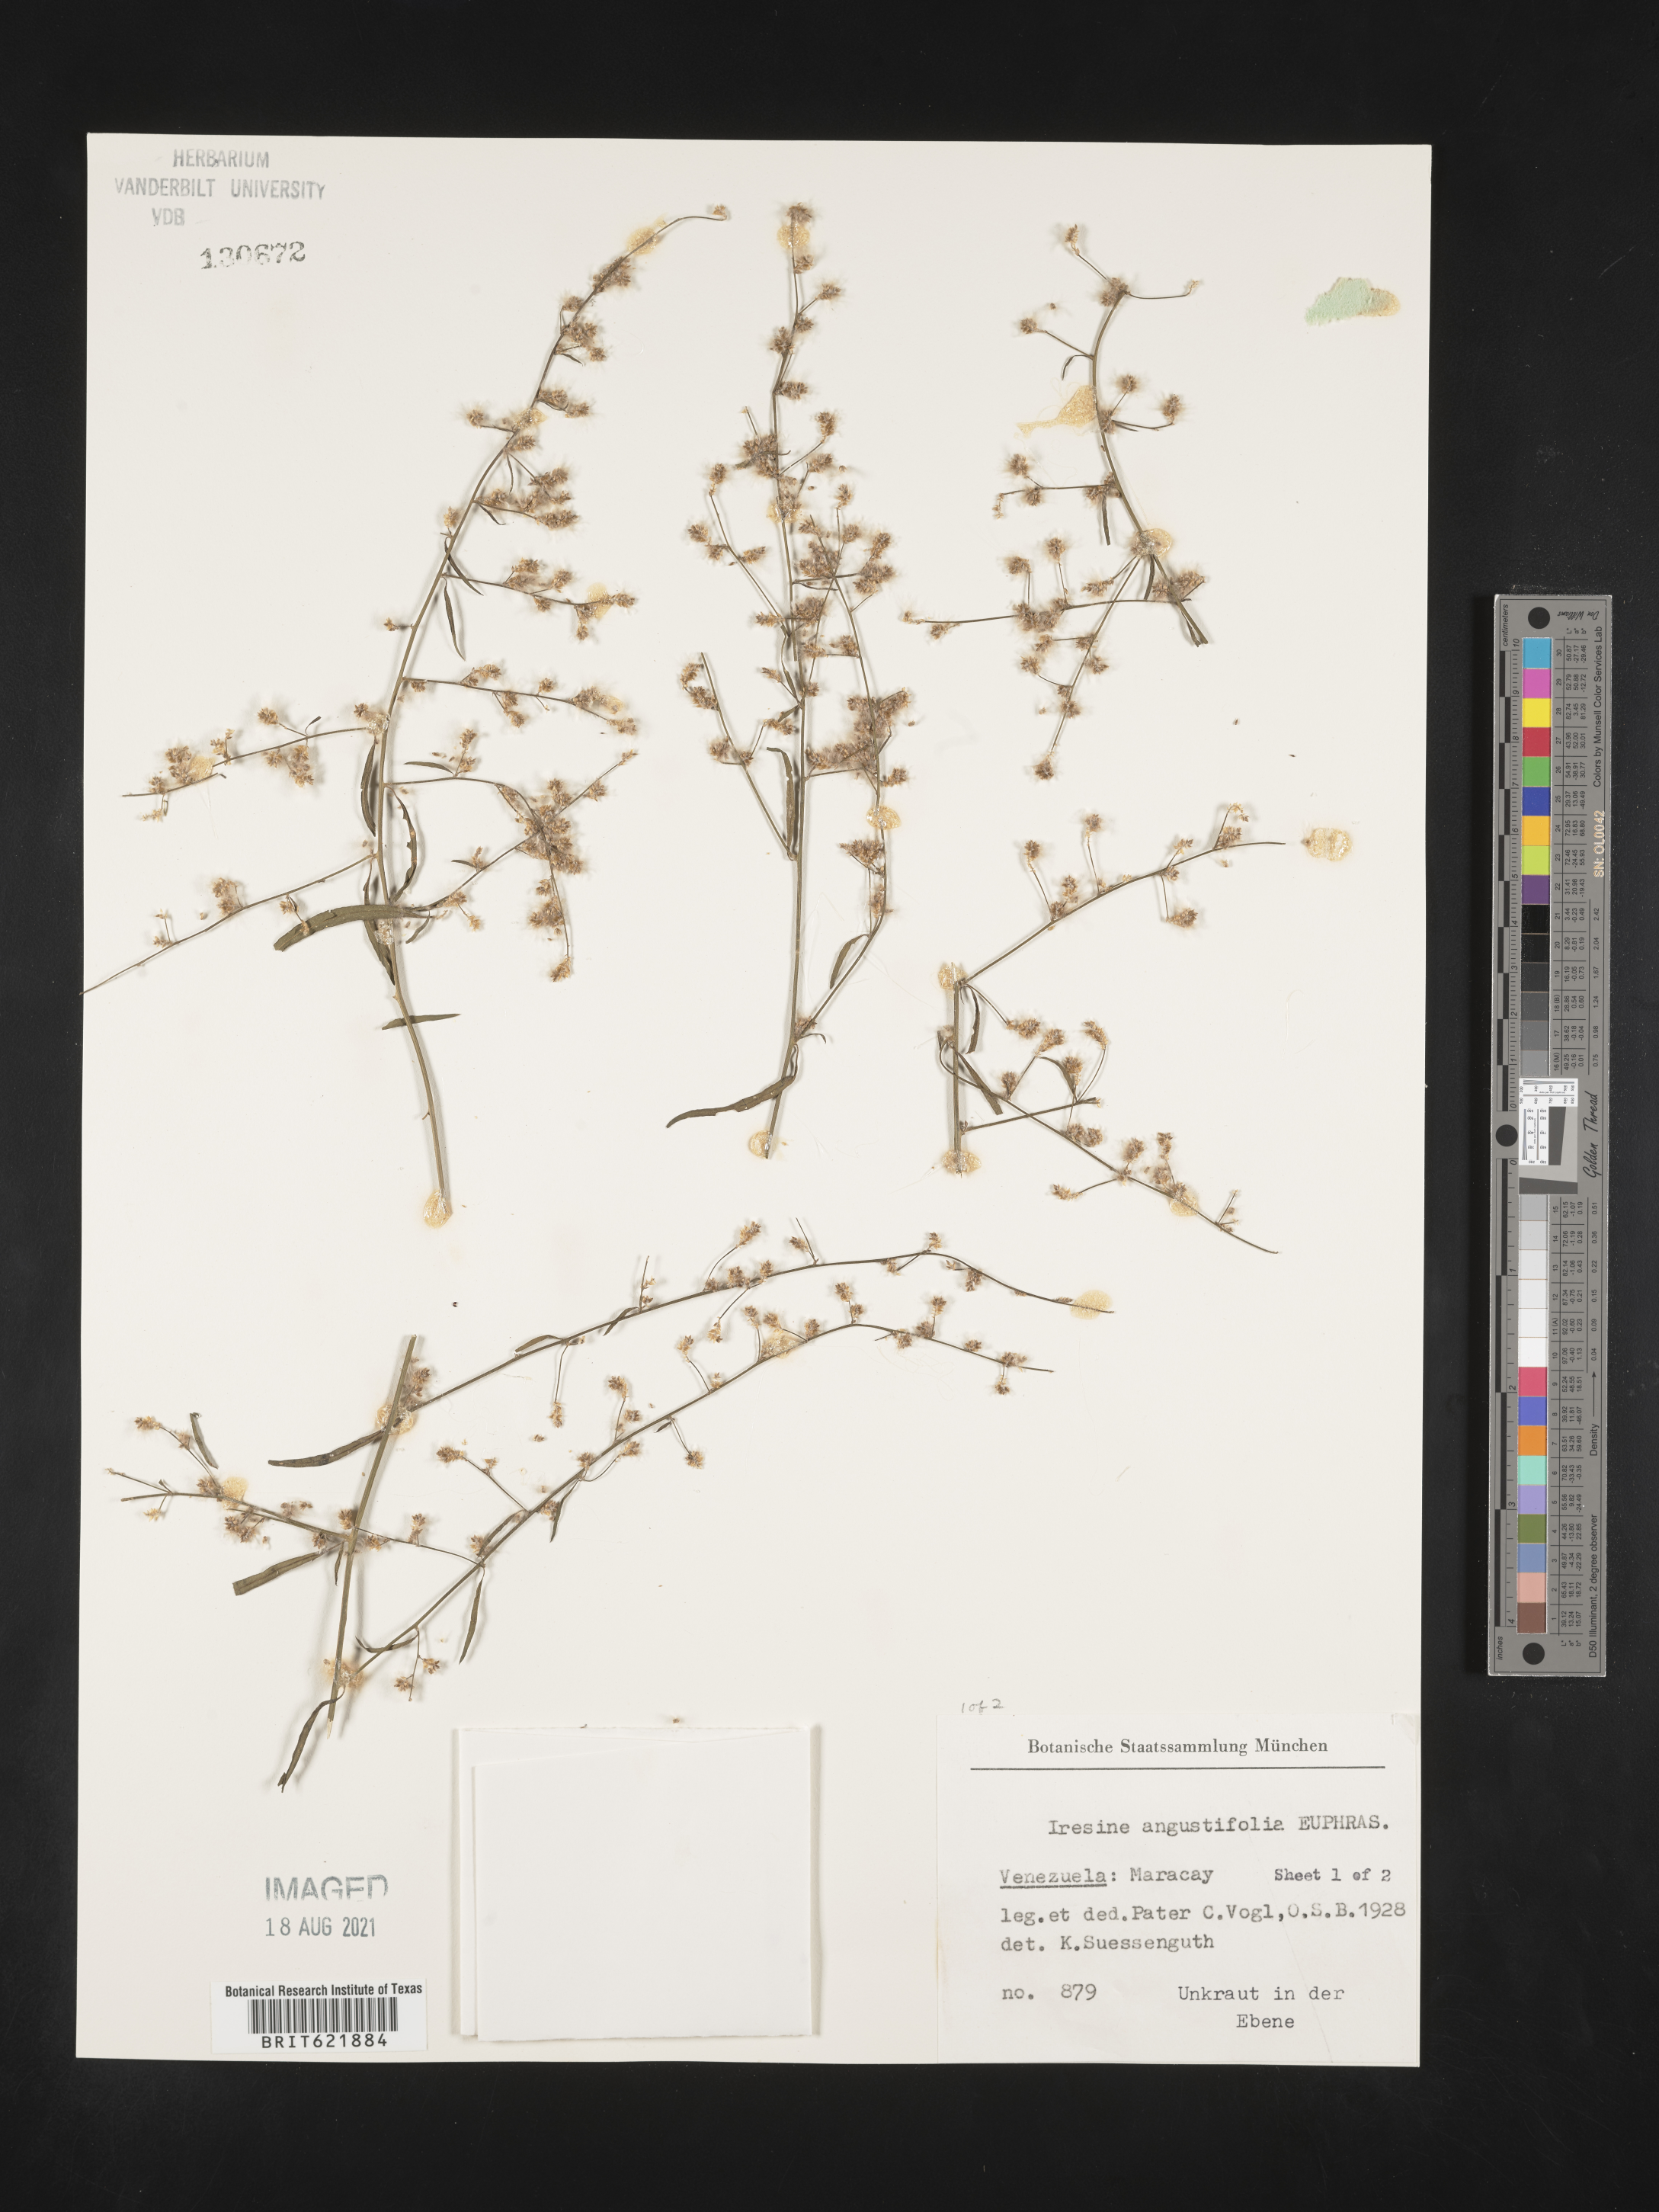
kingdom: Plantae
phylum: Tracheophyta
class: Magnoliopsida
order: Caryophyllales
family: Amaranthaceae
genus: Iresine
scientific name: Iresine interrupta
